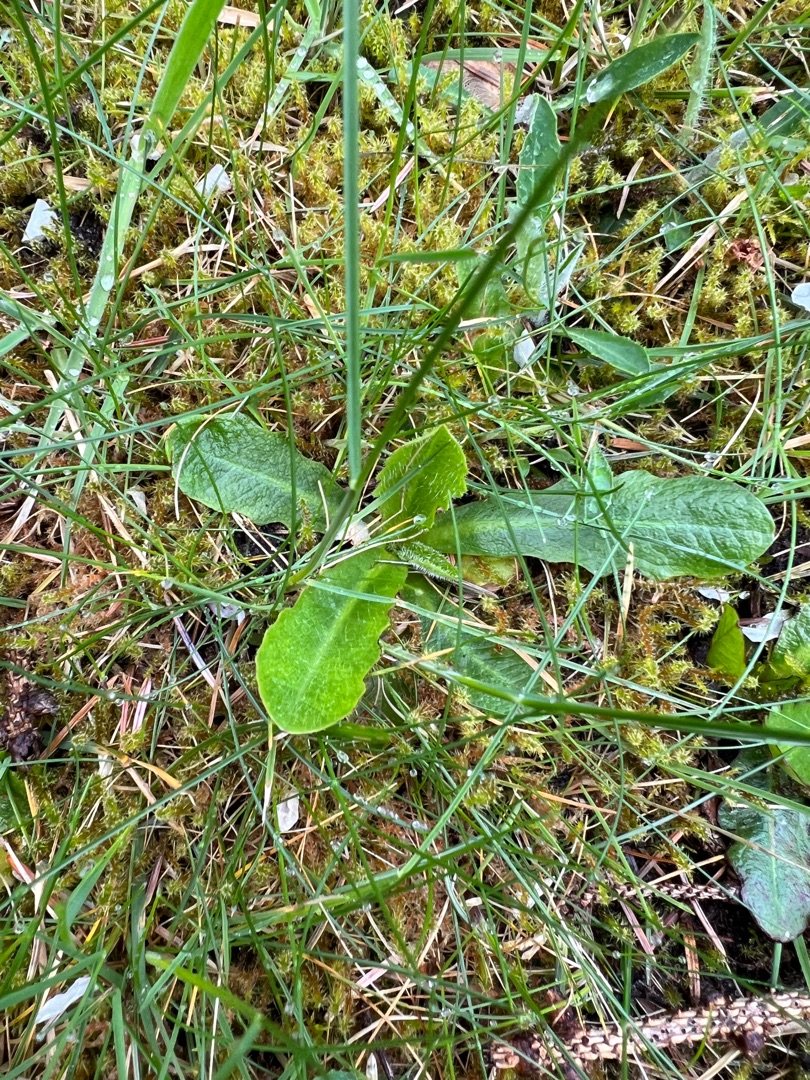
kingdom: Plantae
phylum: Tracheophyta
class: Magnoliopsida
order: Asterales
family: Asteraceae
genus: Hypochaeris
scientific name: Hypochaeris radicata
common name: Almindelig kongepen
